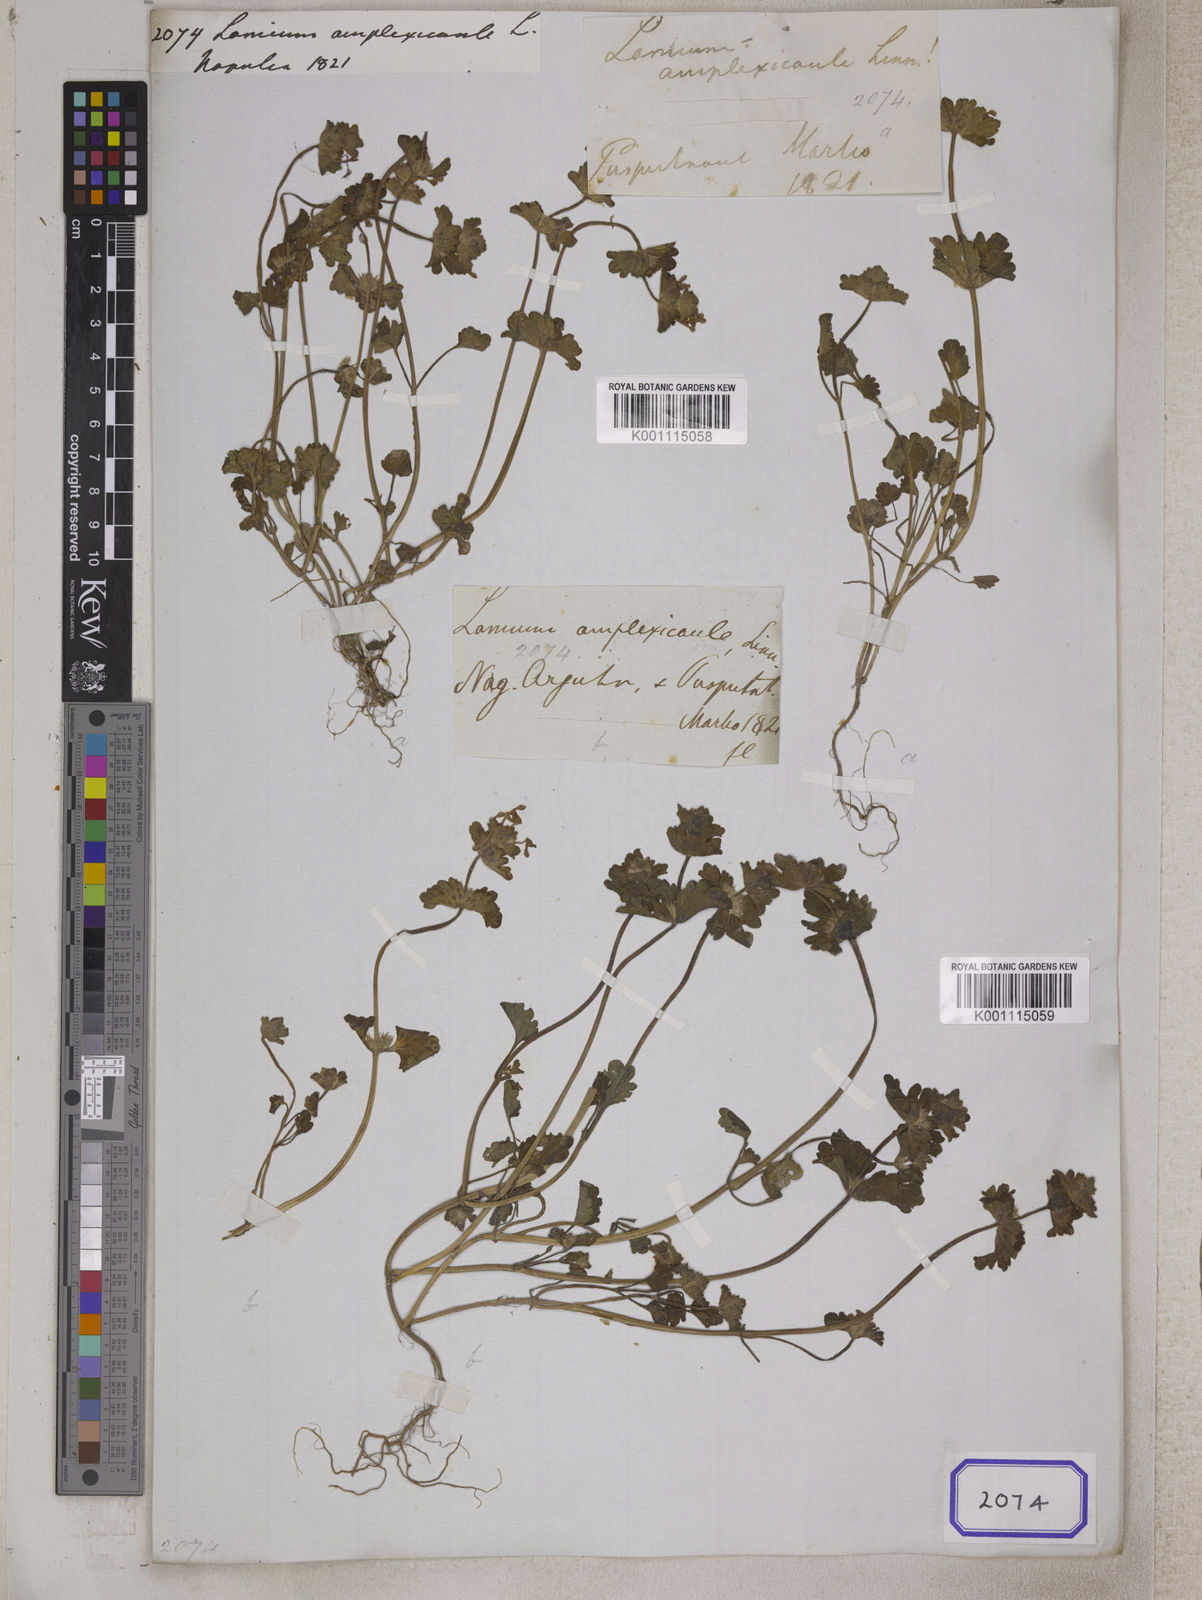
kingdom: Plantae
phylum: Tracheophyta
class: Magnoliopsida
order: Lamiales
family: Lamiaceae
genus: Lamium
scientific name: Lamium amplexicaule
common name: Henbit dead-nettle
